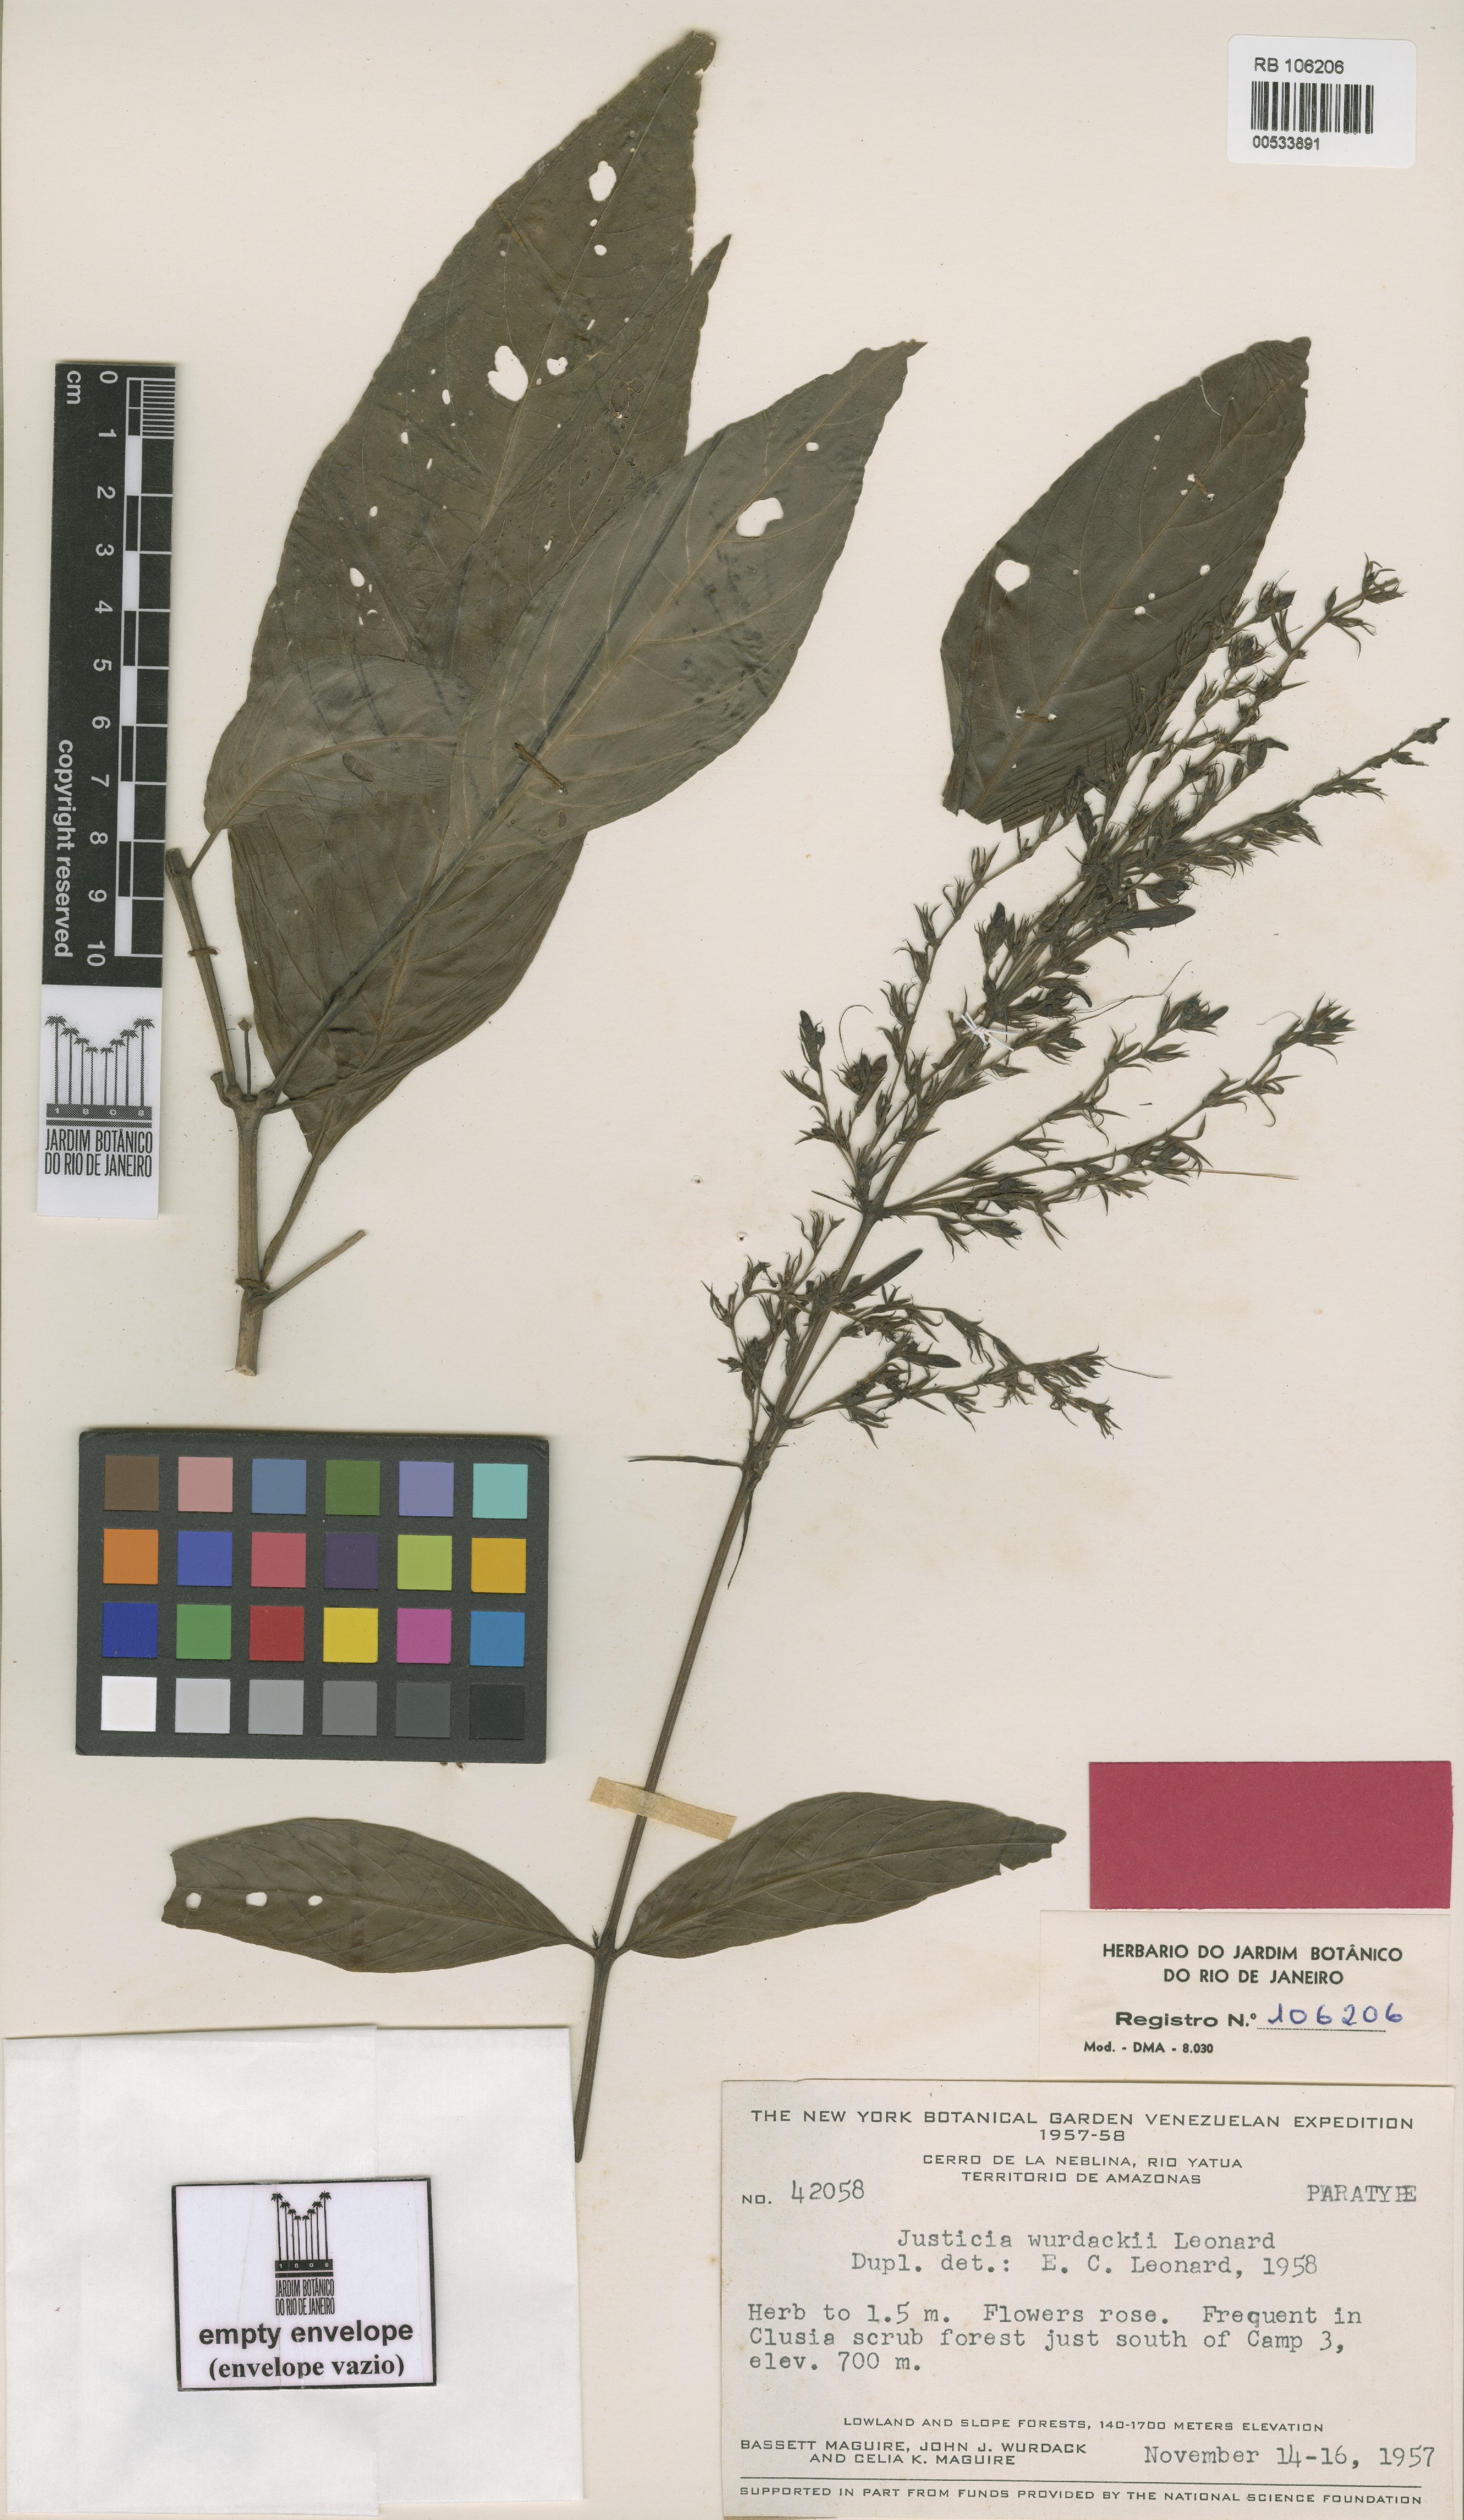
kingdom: Plantae
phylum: Tracheophyta
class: Magnoliopsida
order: Lamiales
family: Acanthaceae
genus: Justicia
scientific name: Justicia parguazensis
